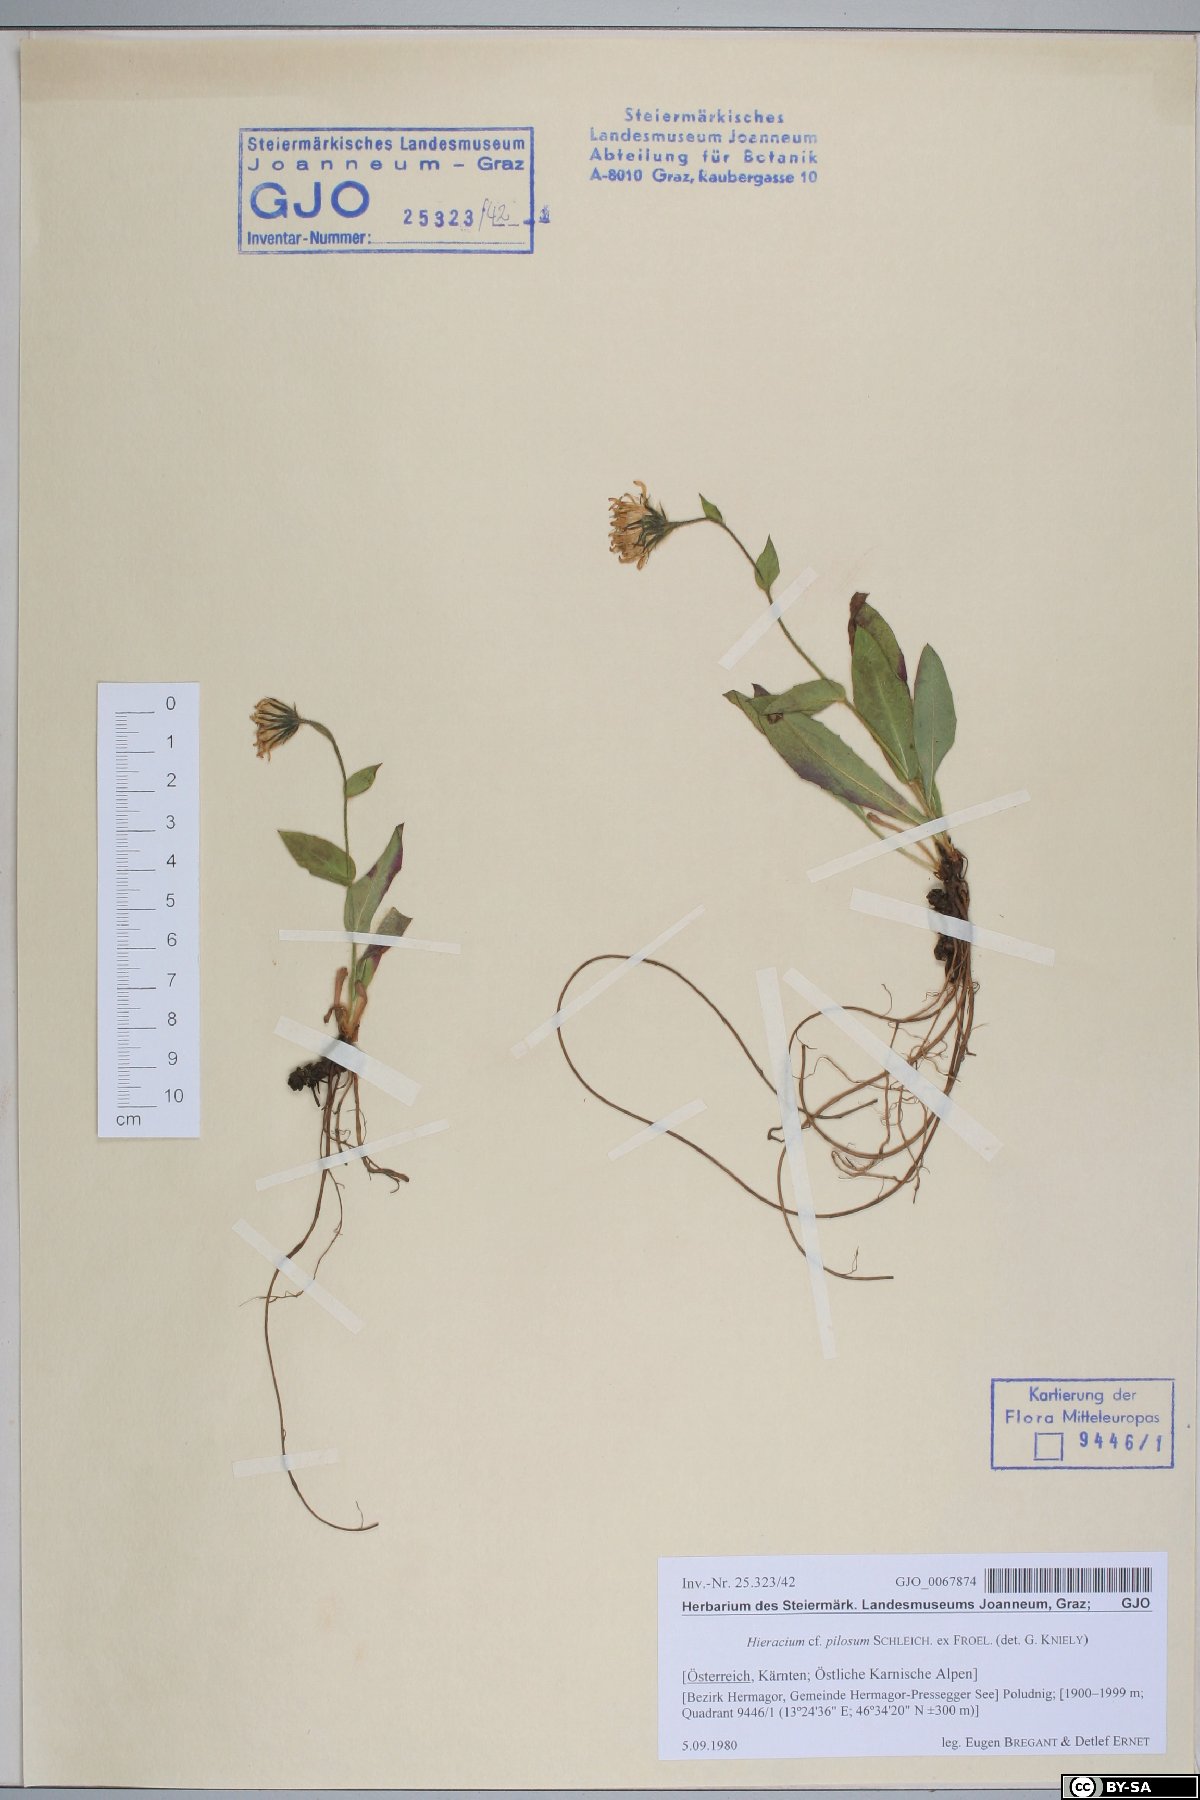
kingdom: Plantae
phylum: Tracheophyta
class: Magnoliopsida
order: Asterales
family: Asteraceae
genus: Hieracium
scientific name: Hieracium pilosum
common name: Fimbriate-pitted hawkweed
